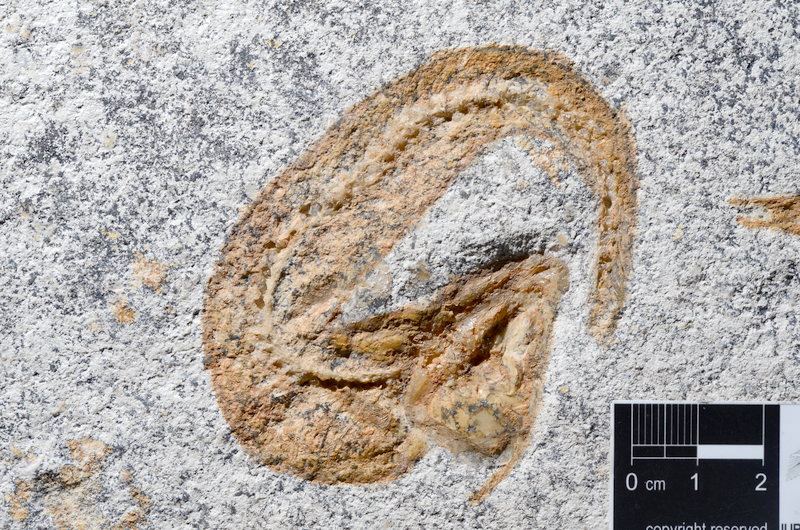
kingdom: Animalia
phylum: Chordata
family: Ascalaboidae
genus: Tharsis
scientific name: Tharsis dubius
